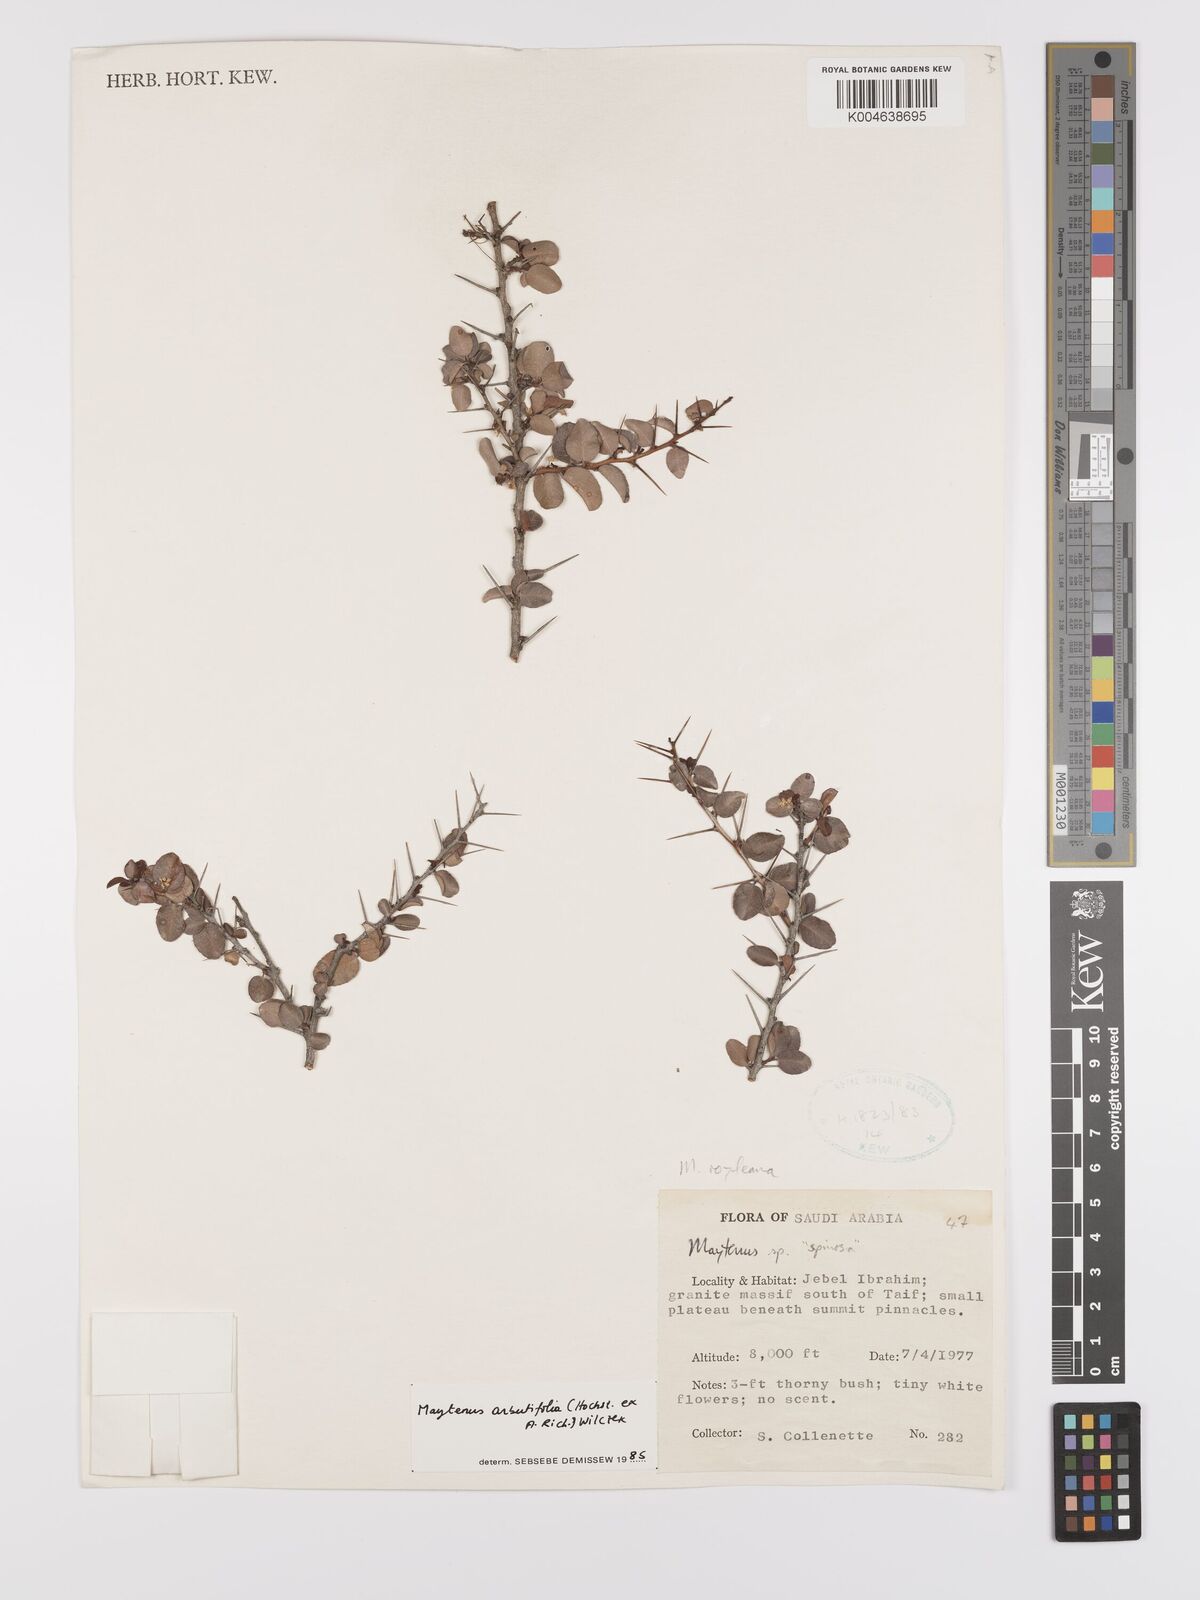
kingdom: Plantae
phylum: Tracheophyta
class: Magnoliopsida
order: Celastrales
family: Celastraceae
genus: Gymnosporia
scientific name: Gymnosporia arbutifolia
